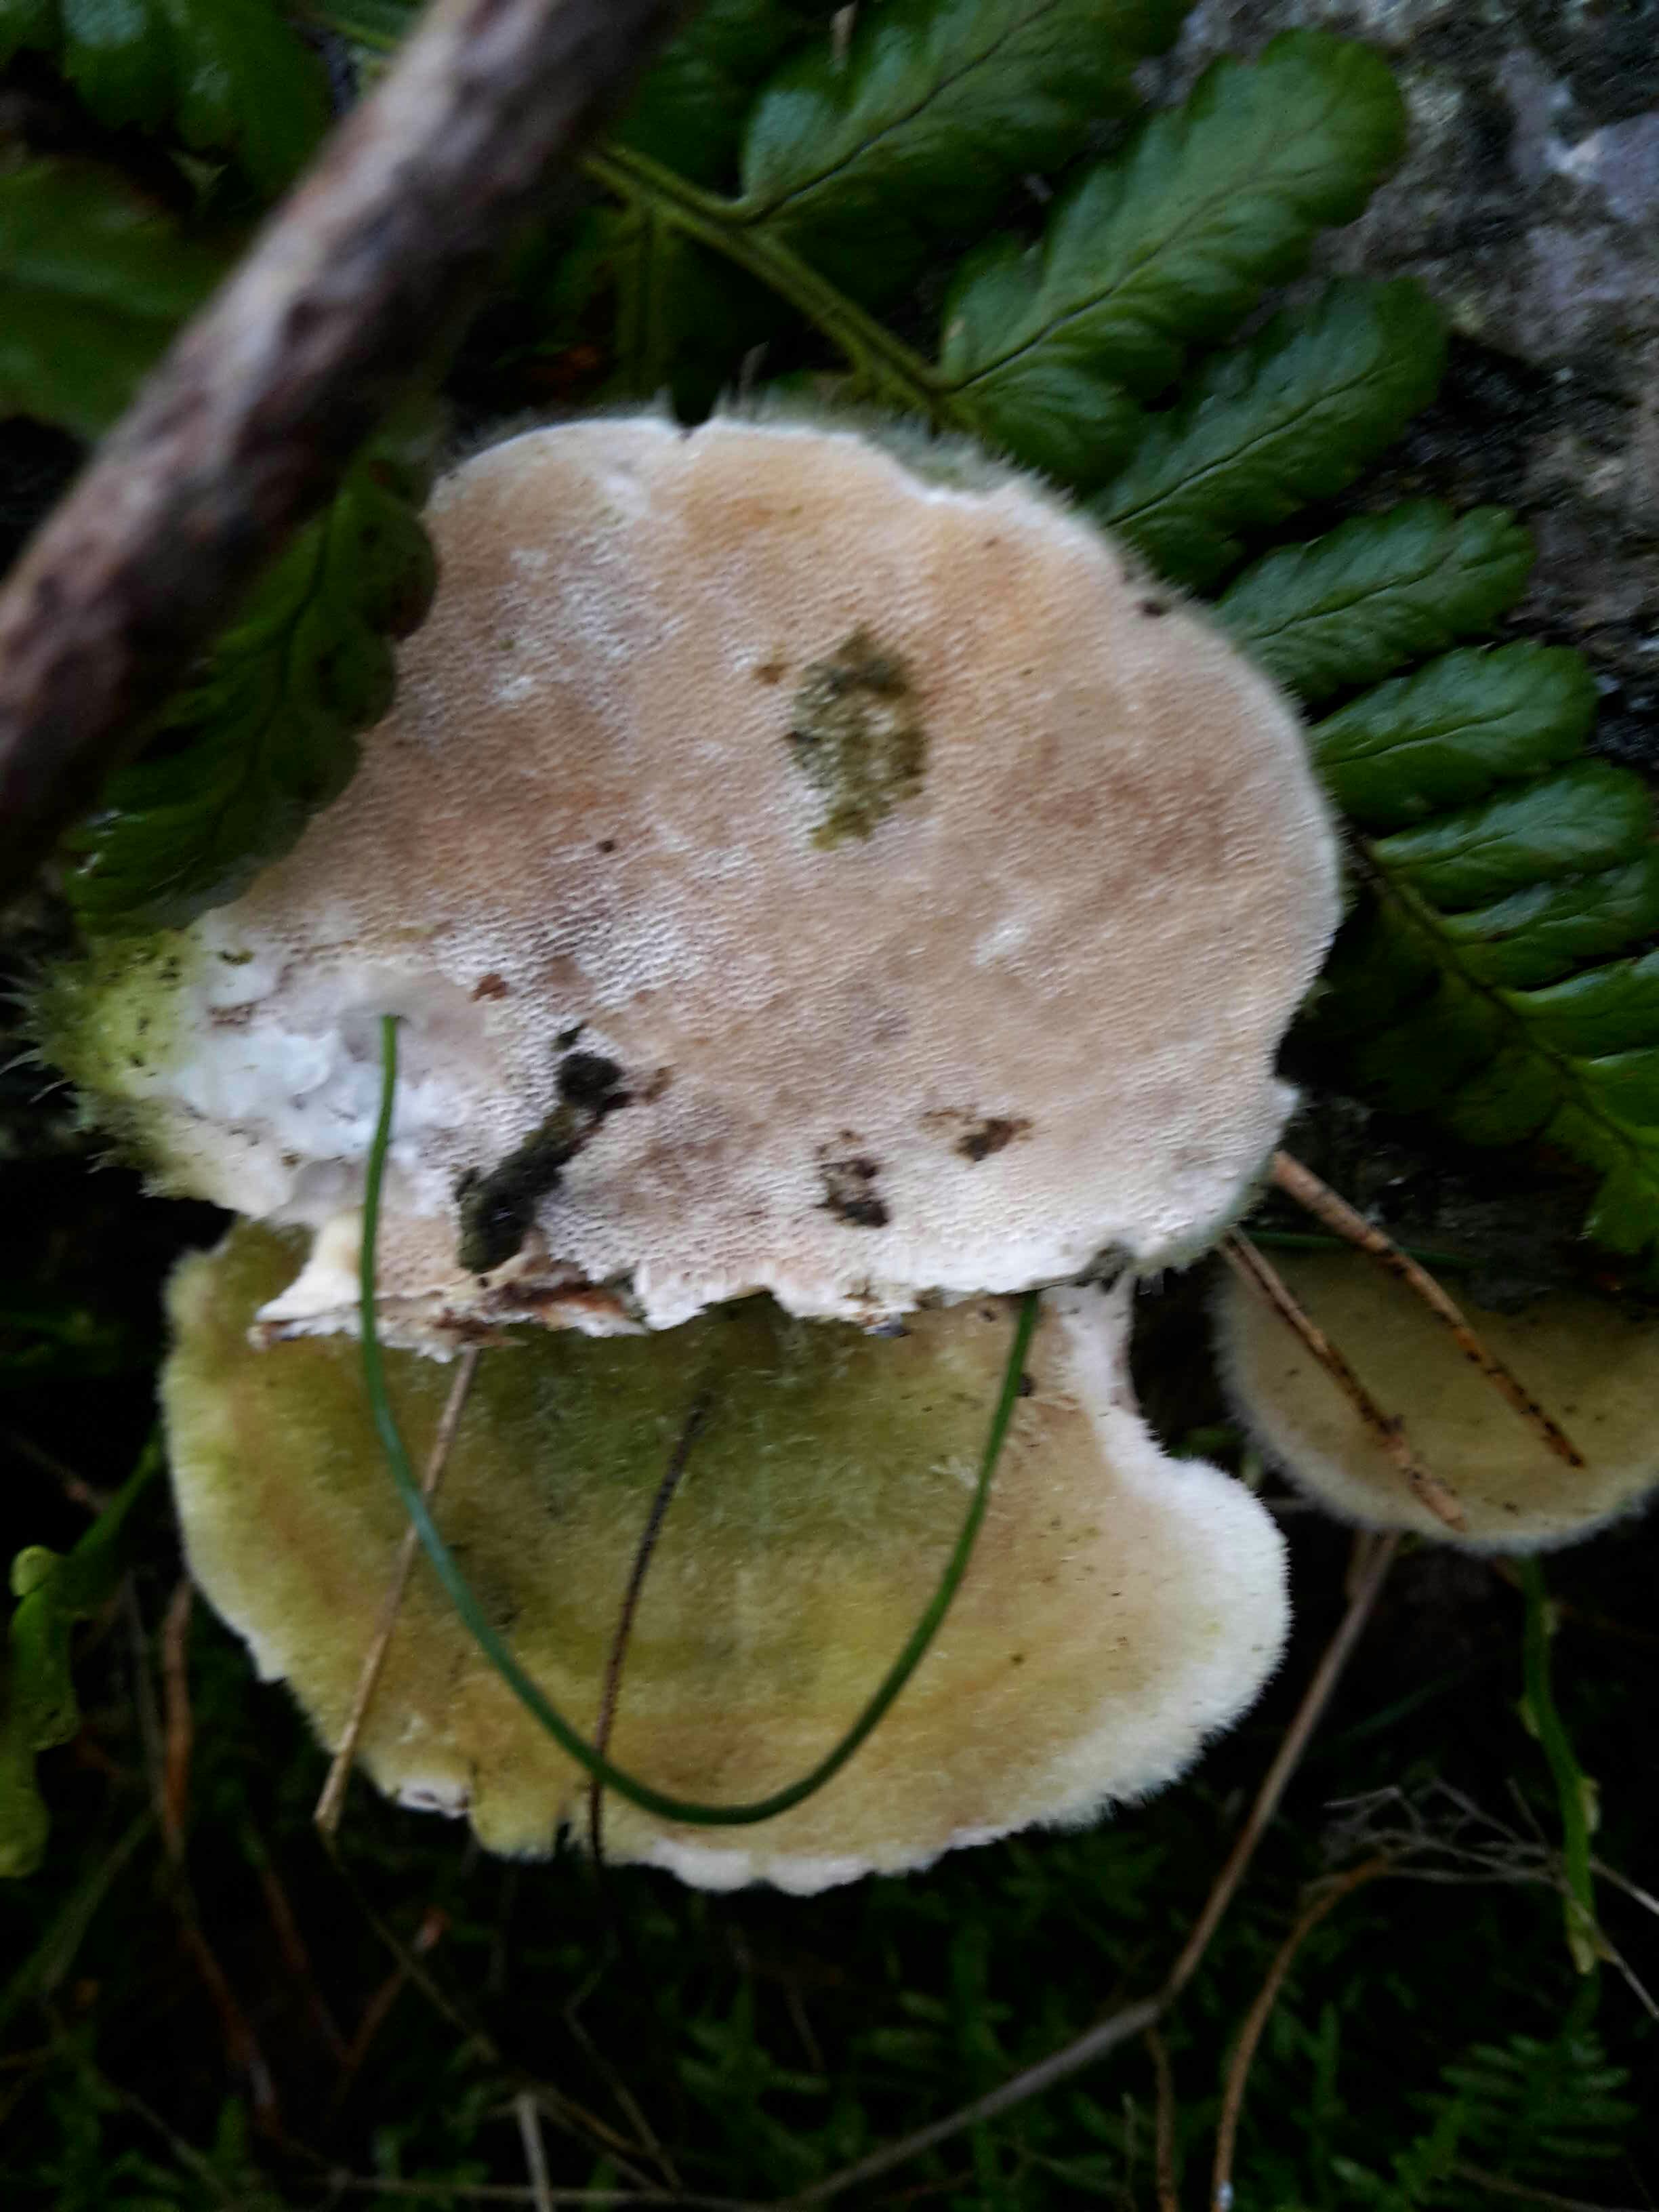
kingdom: Fungi
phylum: Basidiomycota
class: Agaricomycetes
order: Polyporales
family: Polyporaceae
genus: Trametes
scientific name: Trametes hirsuta
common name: håret læderporesvamp
